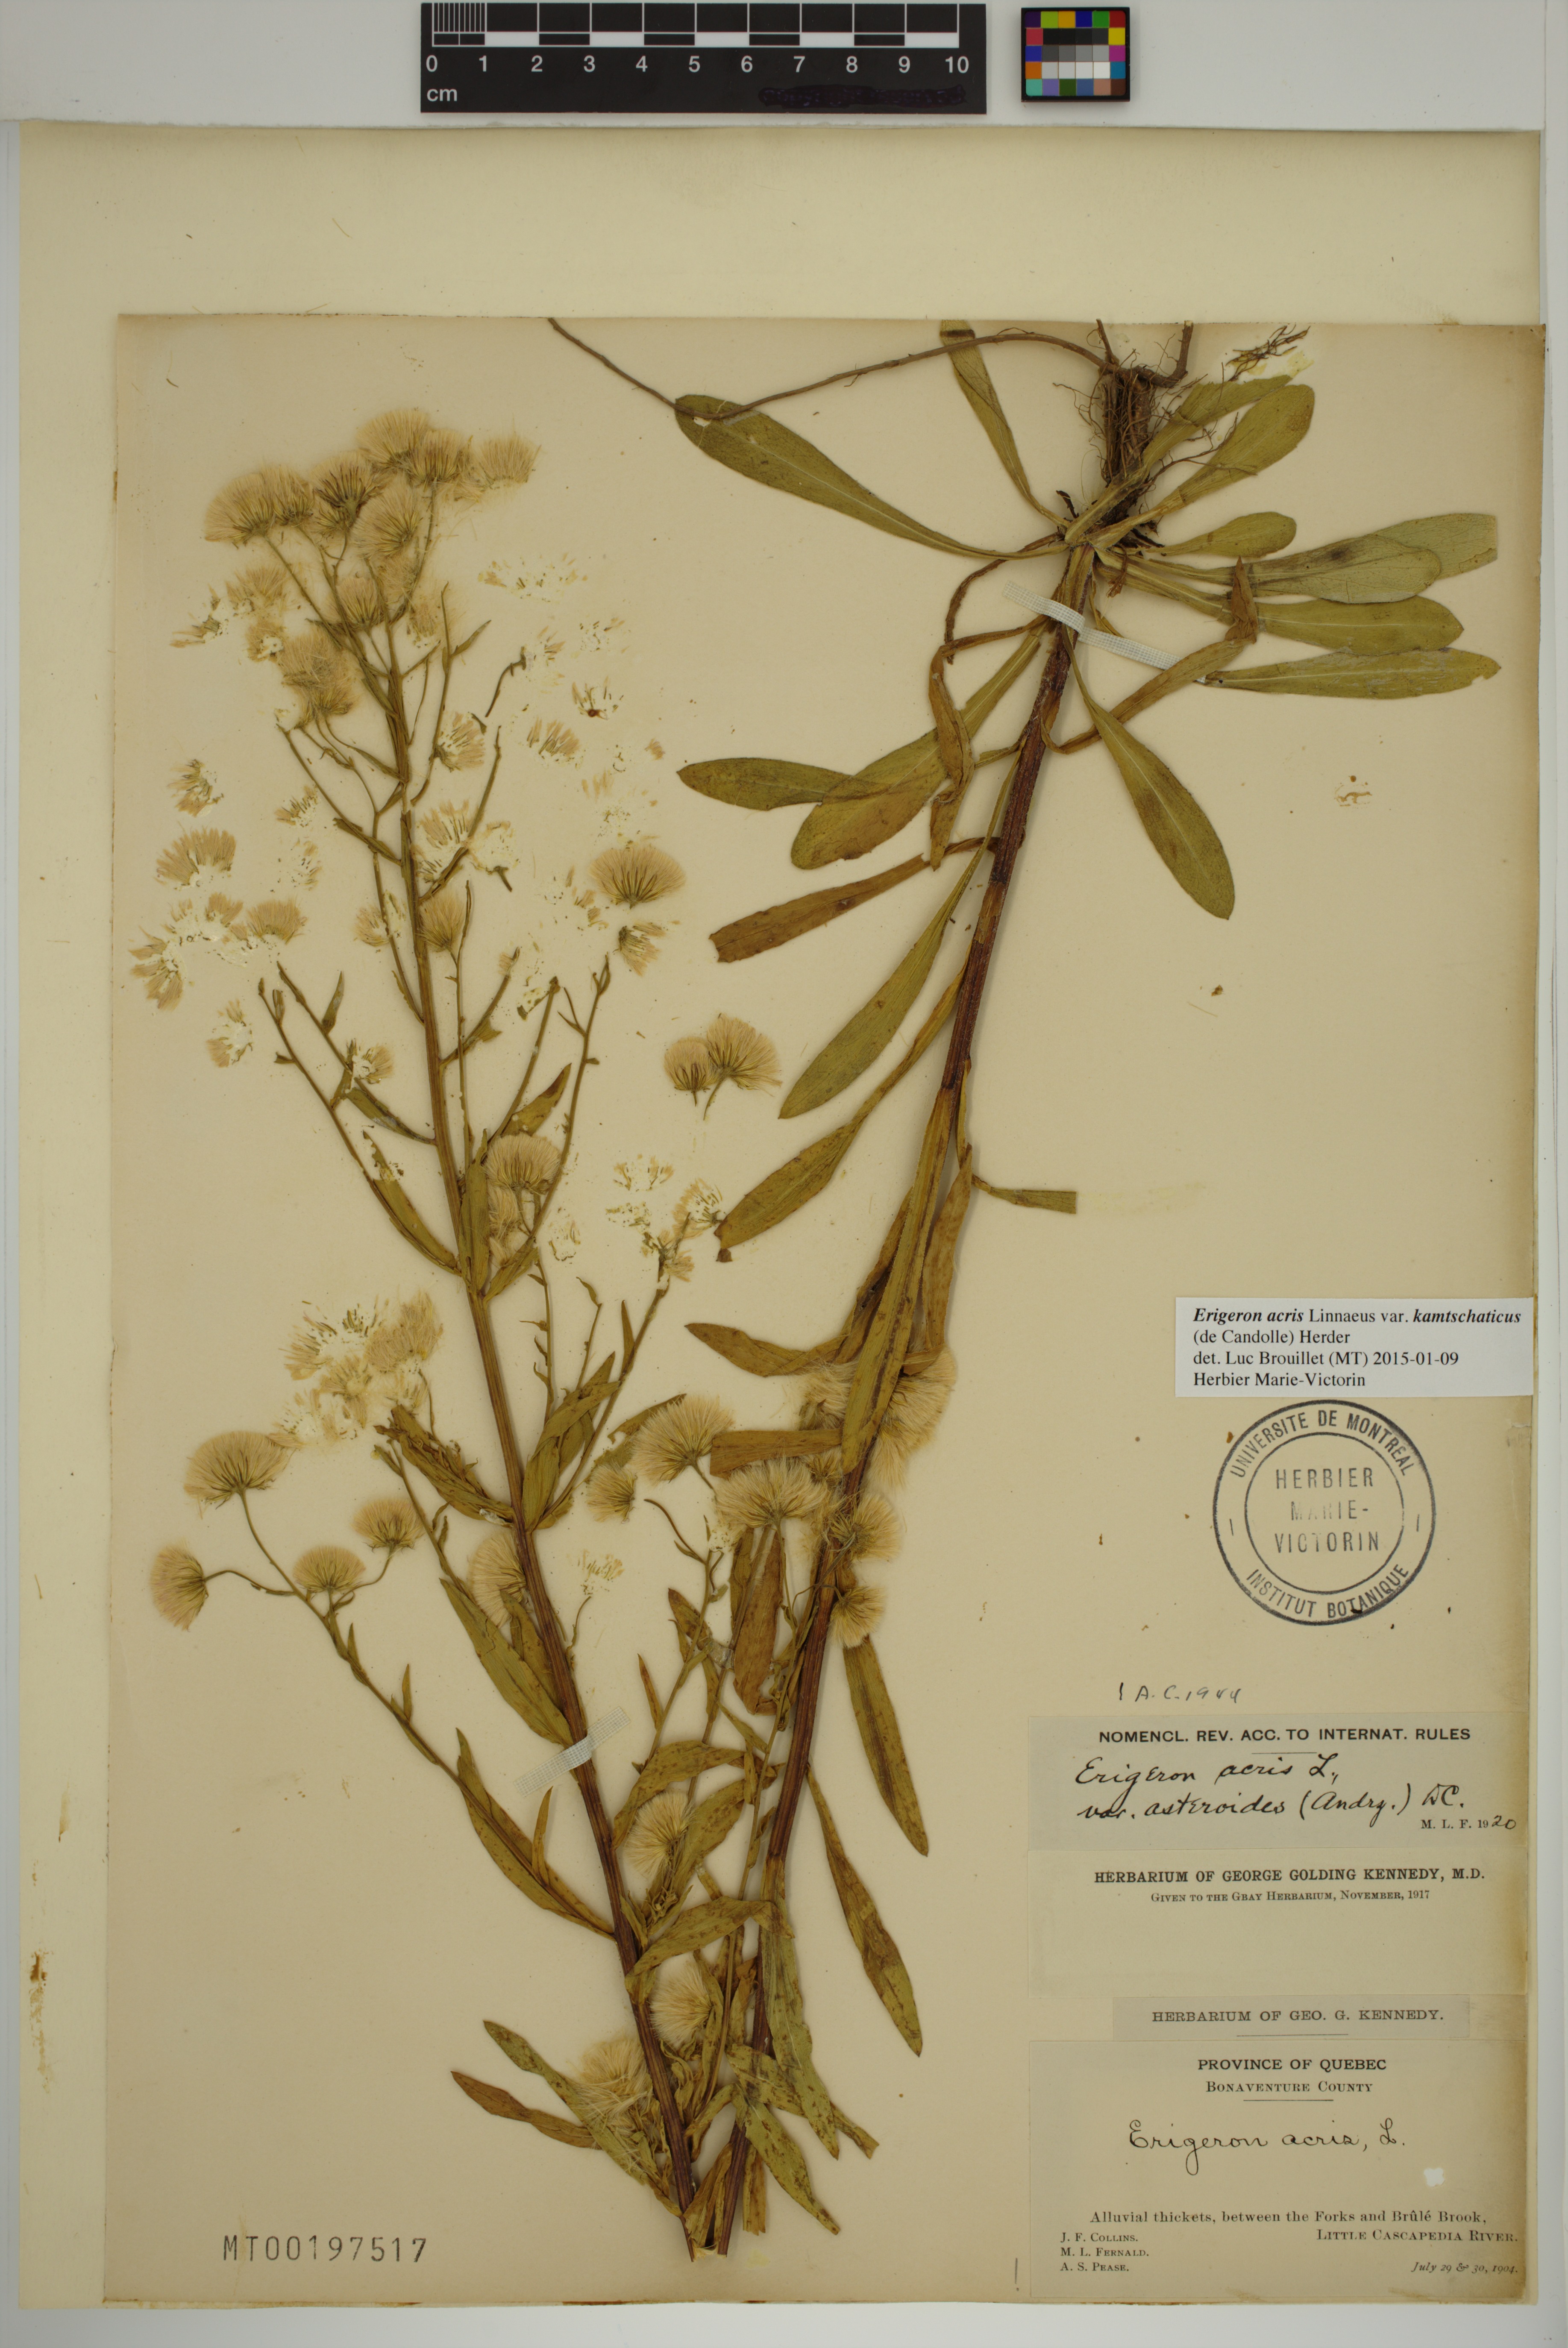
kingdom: Plantae
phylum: Tracheophyta
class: Magnoliopsida
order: Asterales
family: Asteraceae
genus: Erigeron
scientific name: Erigeron kamtschaticus
